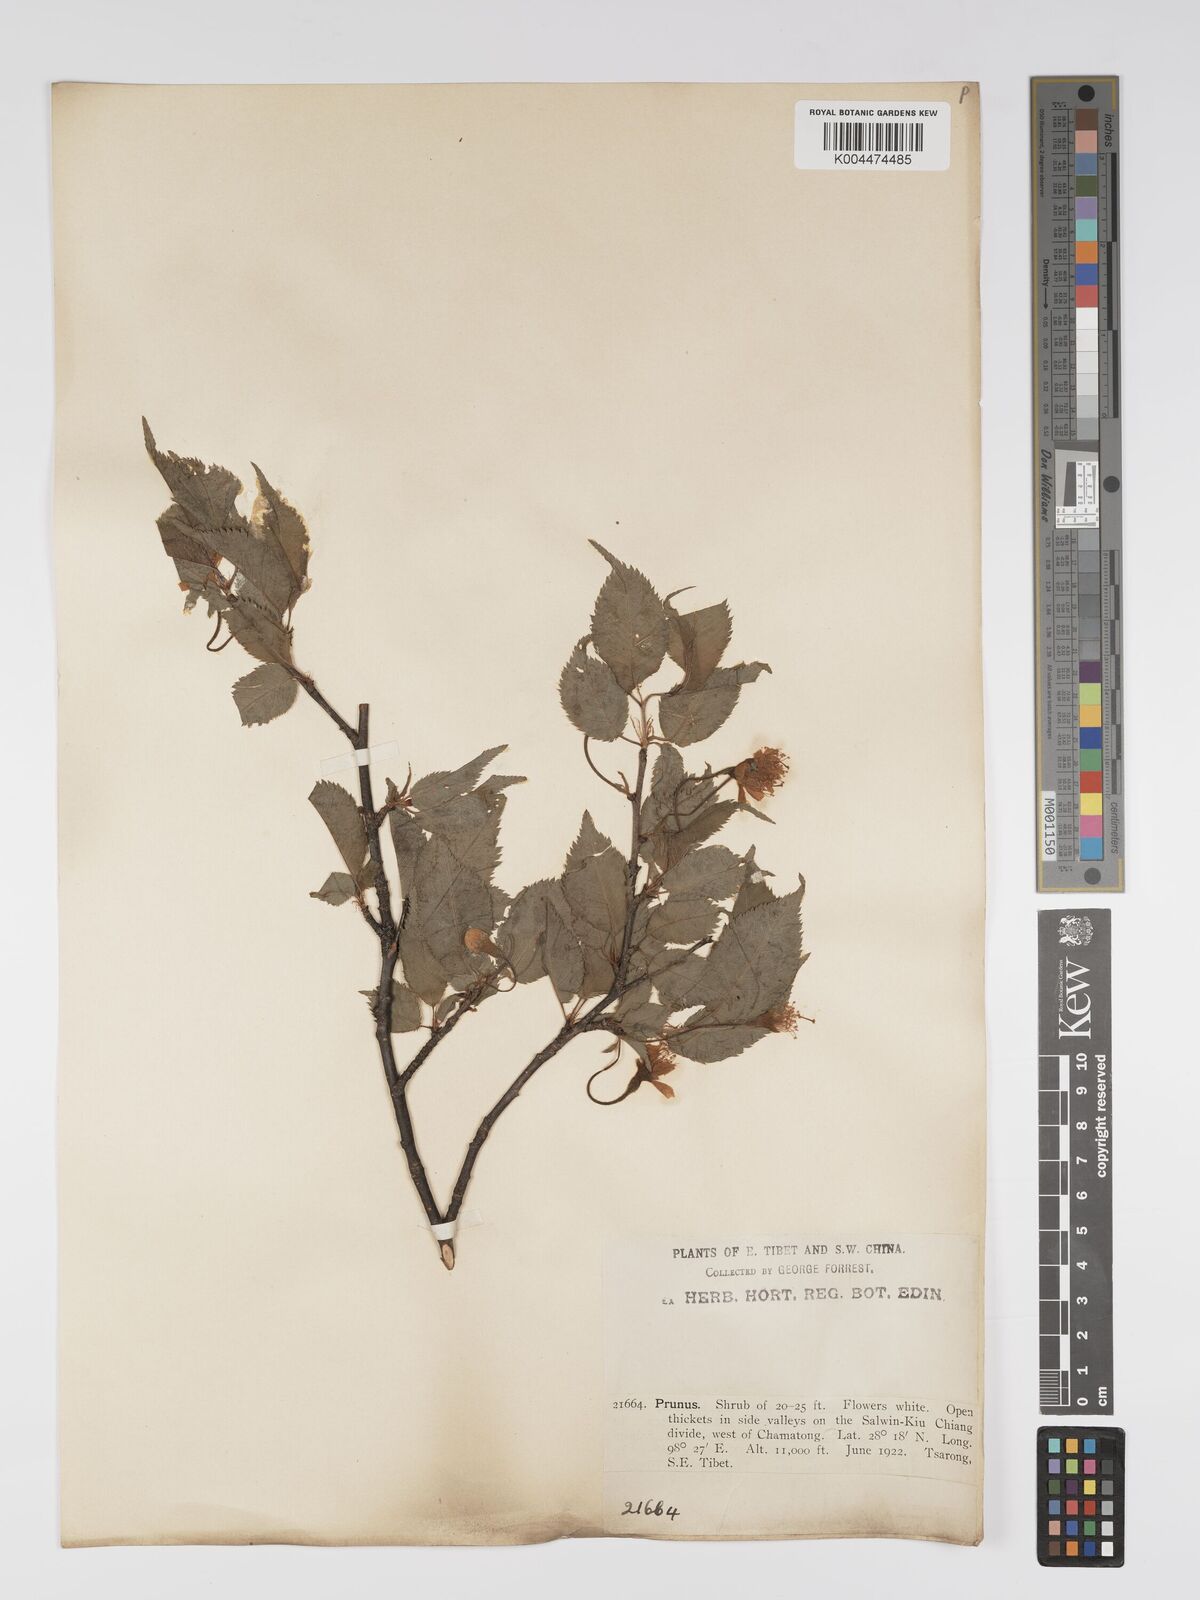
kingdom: Plantae
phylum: Tracheophyta
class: Magnoliopsida
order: Rosales
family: Rosaceae
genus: Prunus
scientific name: Prunus
